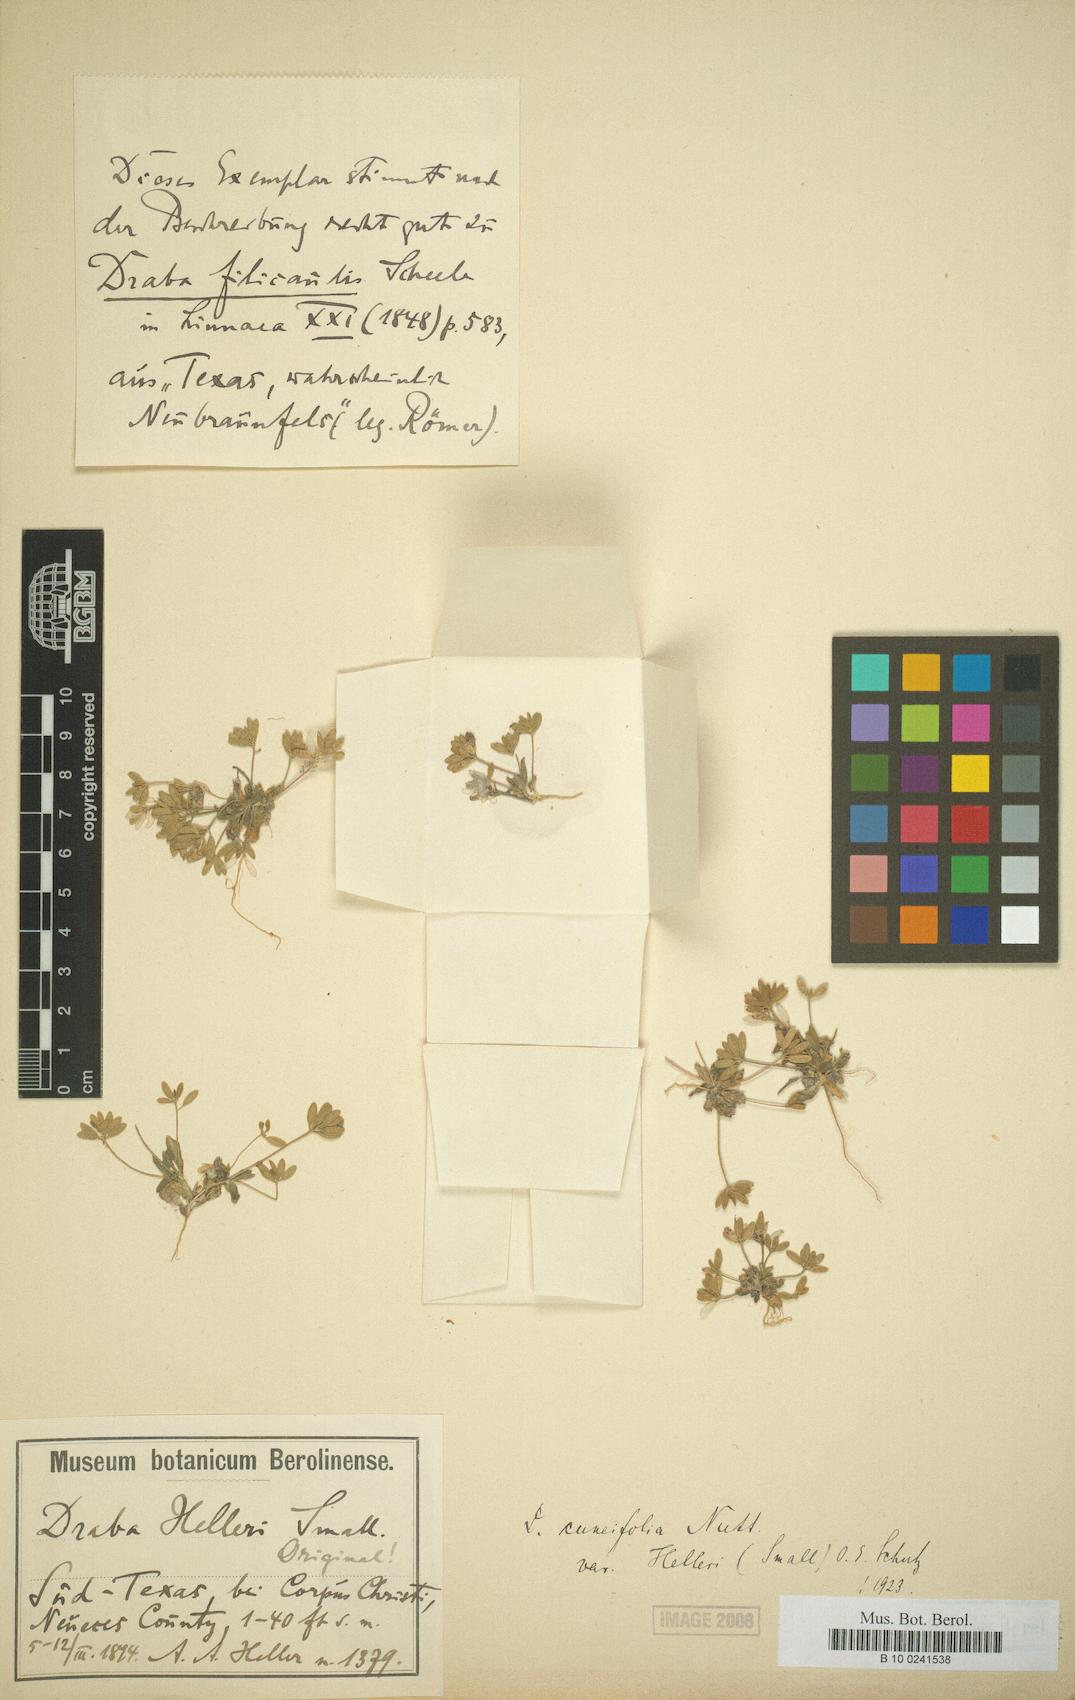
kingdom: Plantae
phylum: Tracheophyta
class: Magnoliopsida
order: Brassicales
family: Brassicaceae
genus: Tomostima
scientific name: Tomostima cuneifolia
